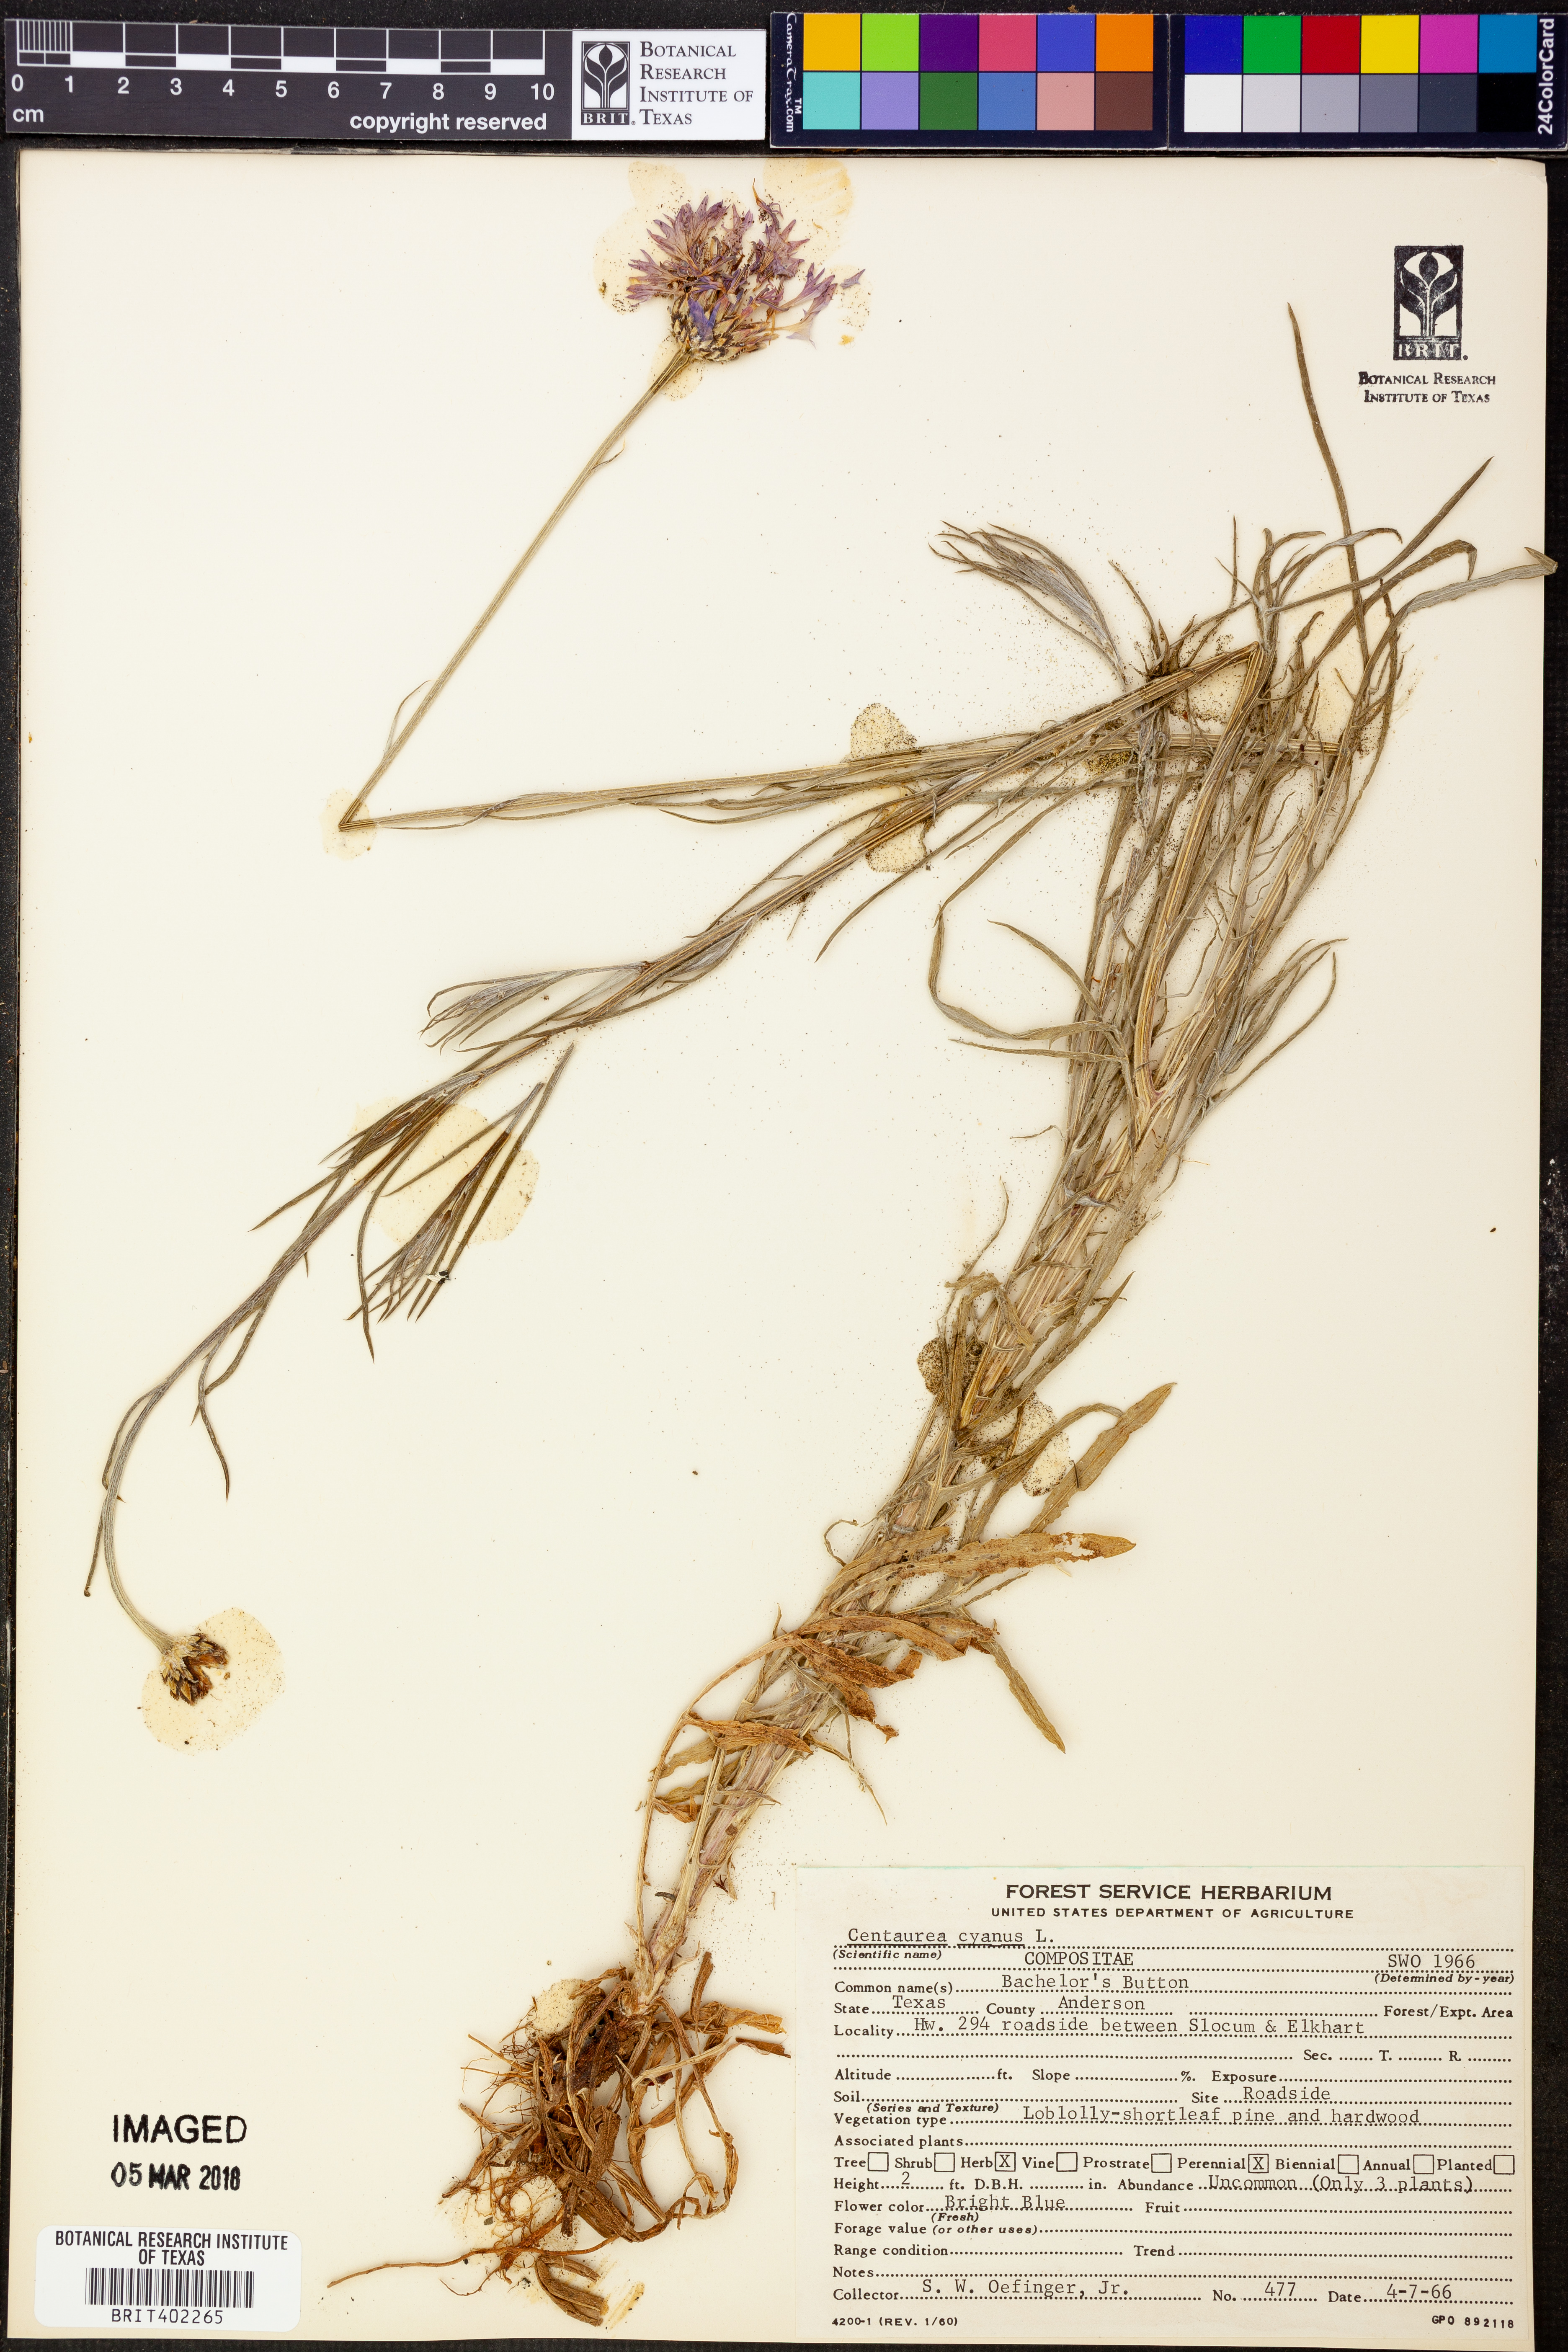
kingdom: Plantae
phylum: Tracheophyta
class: Magnoliopsida
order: Asterales
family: Asteraceae
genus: Centaurea
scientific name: Centaurea cyanus
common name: Cornflower
